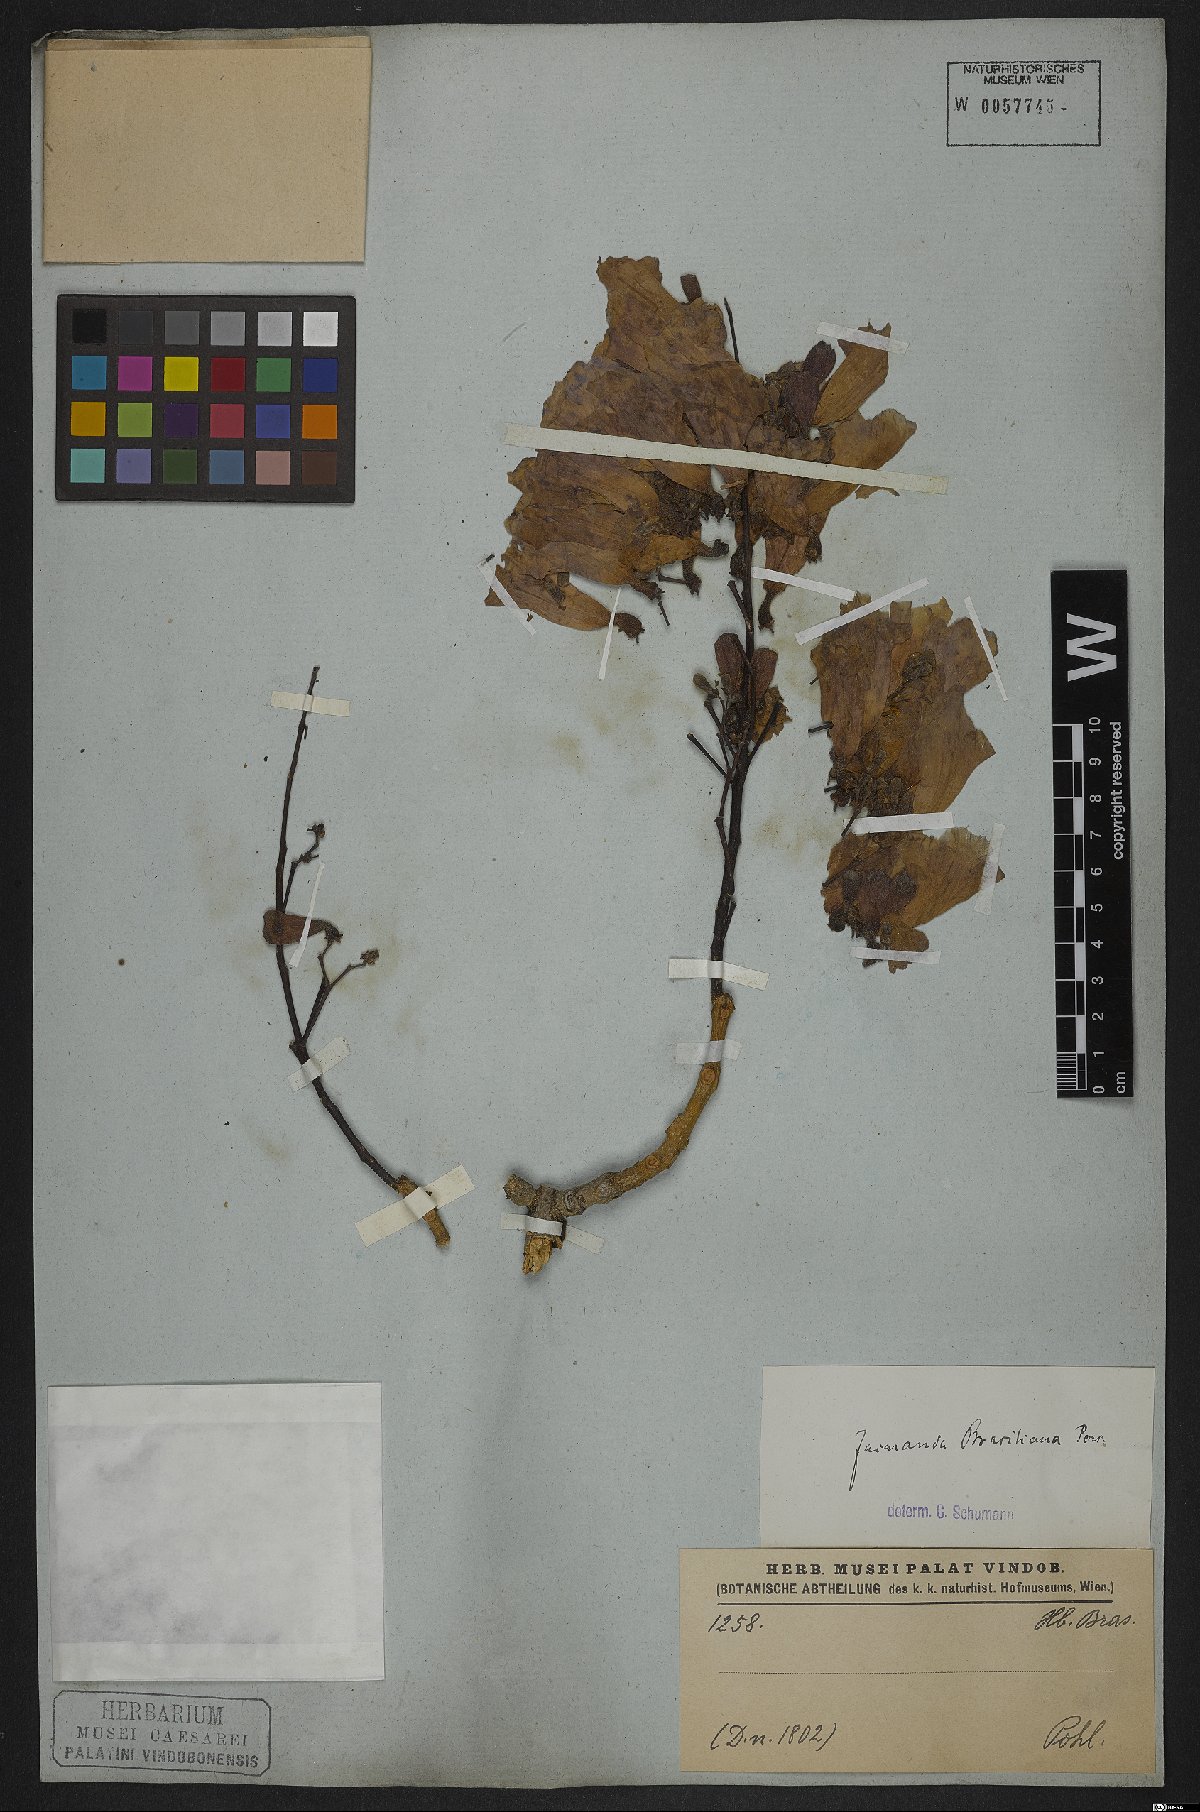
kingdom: Plantae
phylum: Tracheophyta
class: Magnoliopsida
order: Lamiales
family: Bignoniaceae
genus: Jacaranda
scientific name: Jacaranda brasiliana
